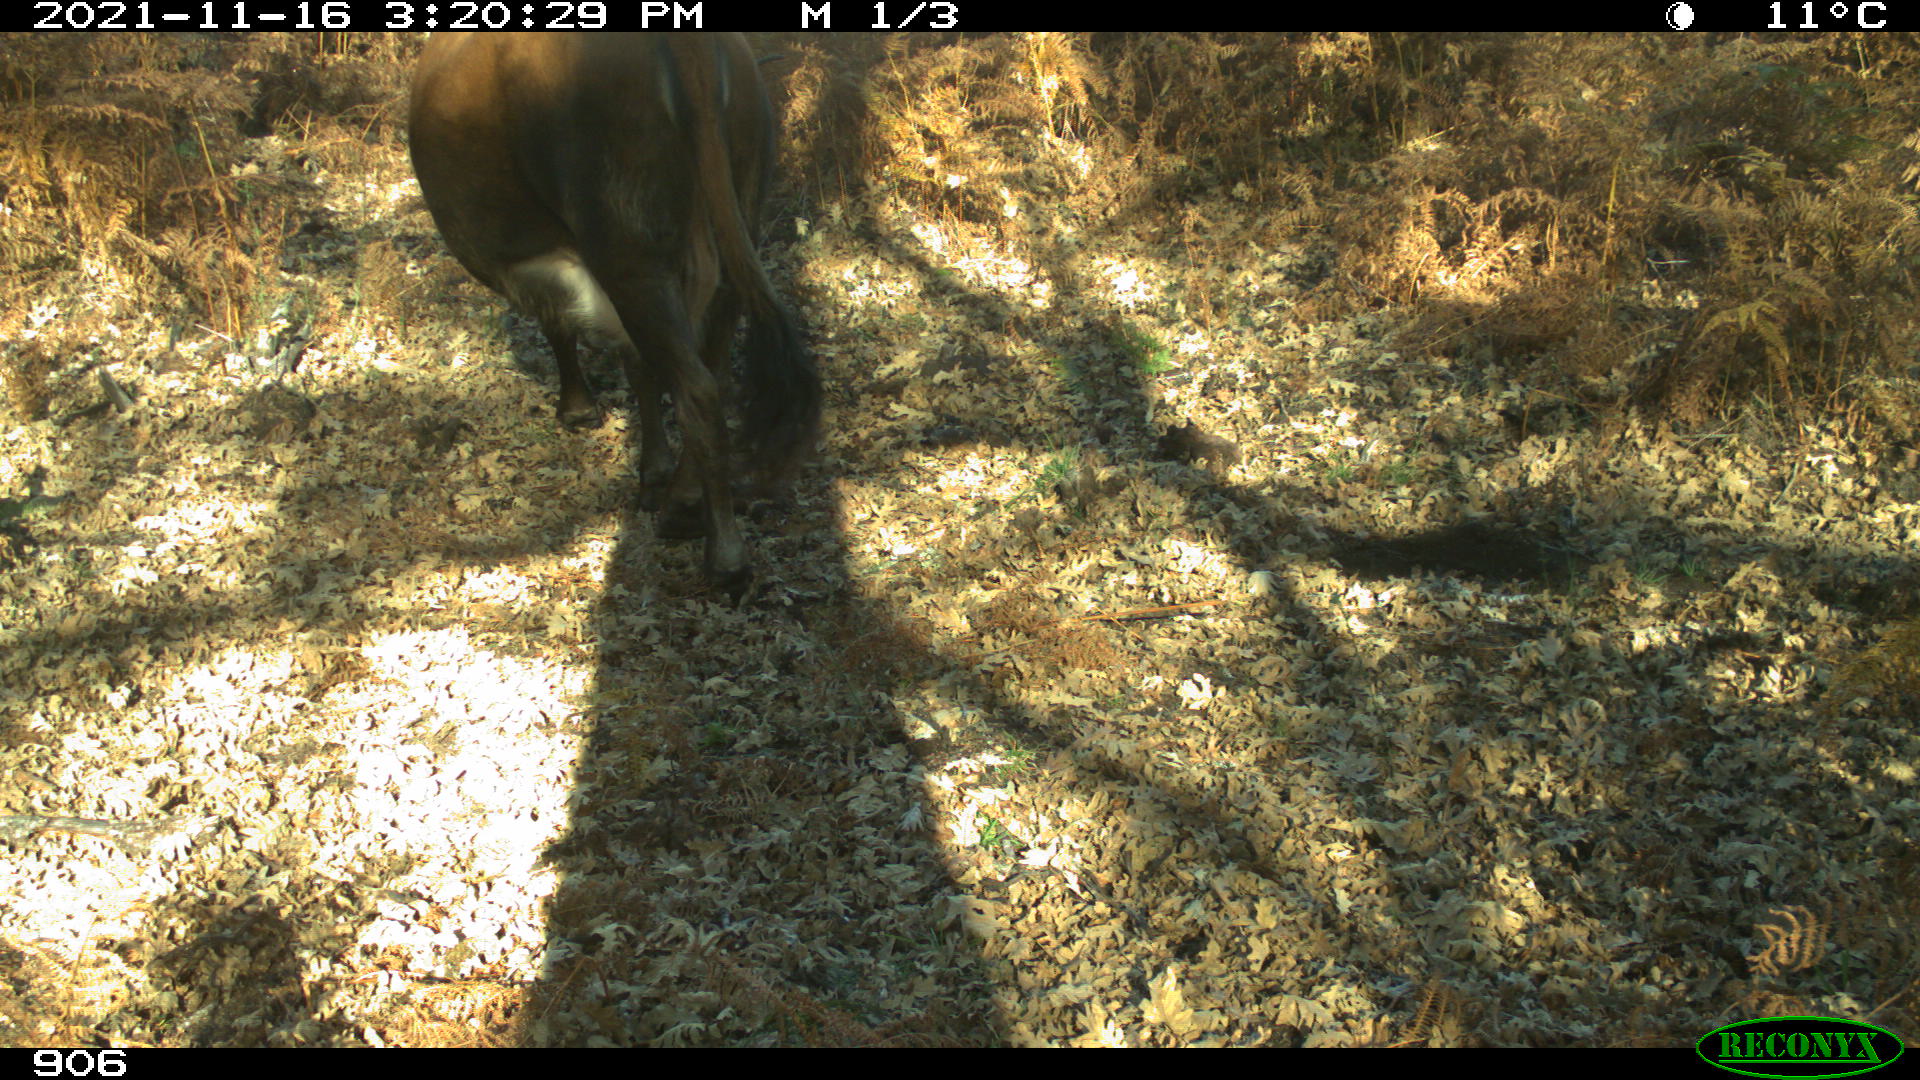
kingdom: Animalia
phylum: Chordata
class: Mammalia
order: Artiodactyla
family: Bovidae
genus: Bos
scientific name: Bos taurus
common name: Domesticated cattle
